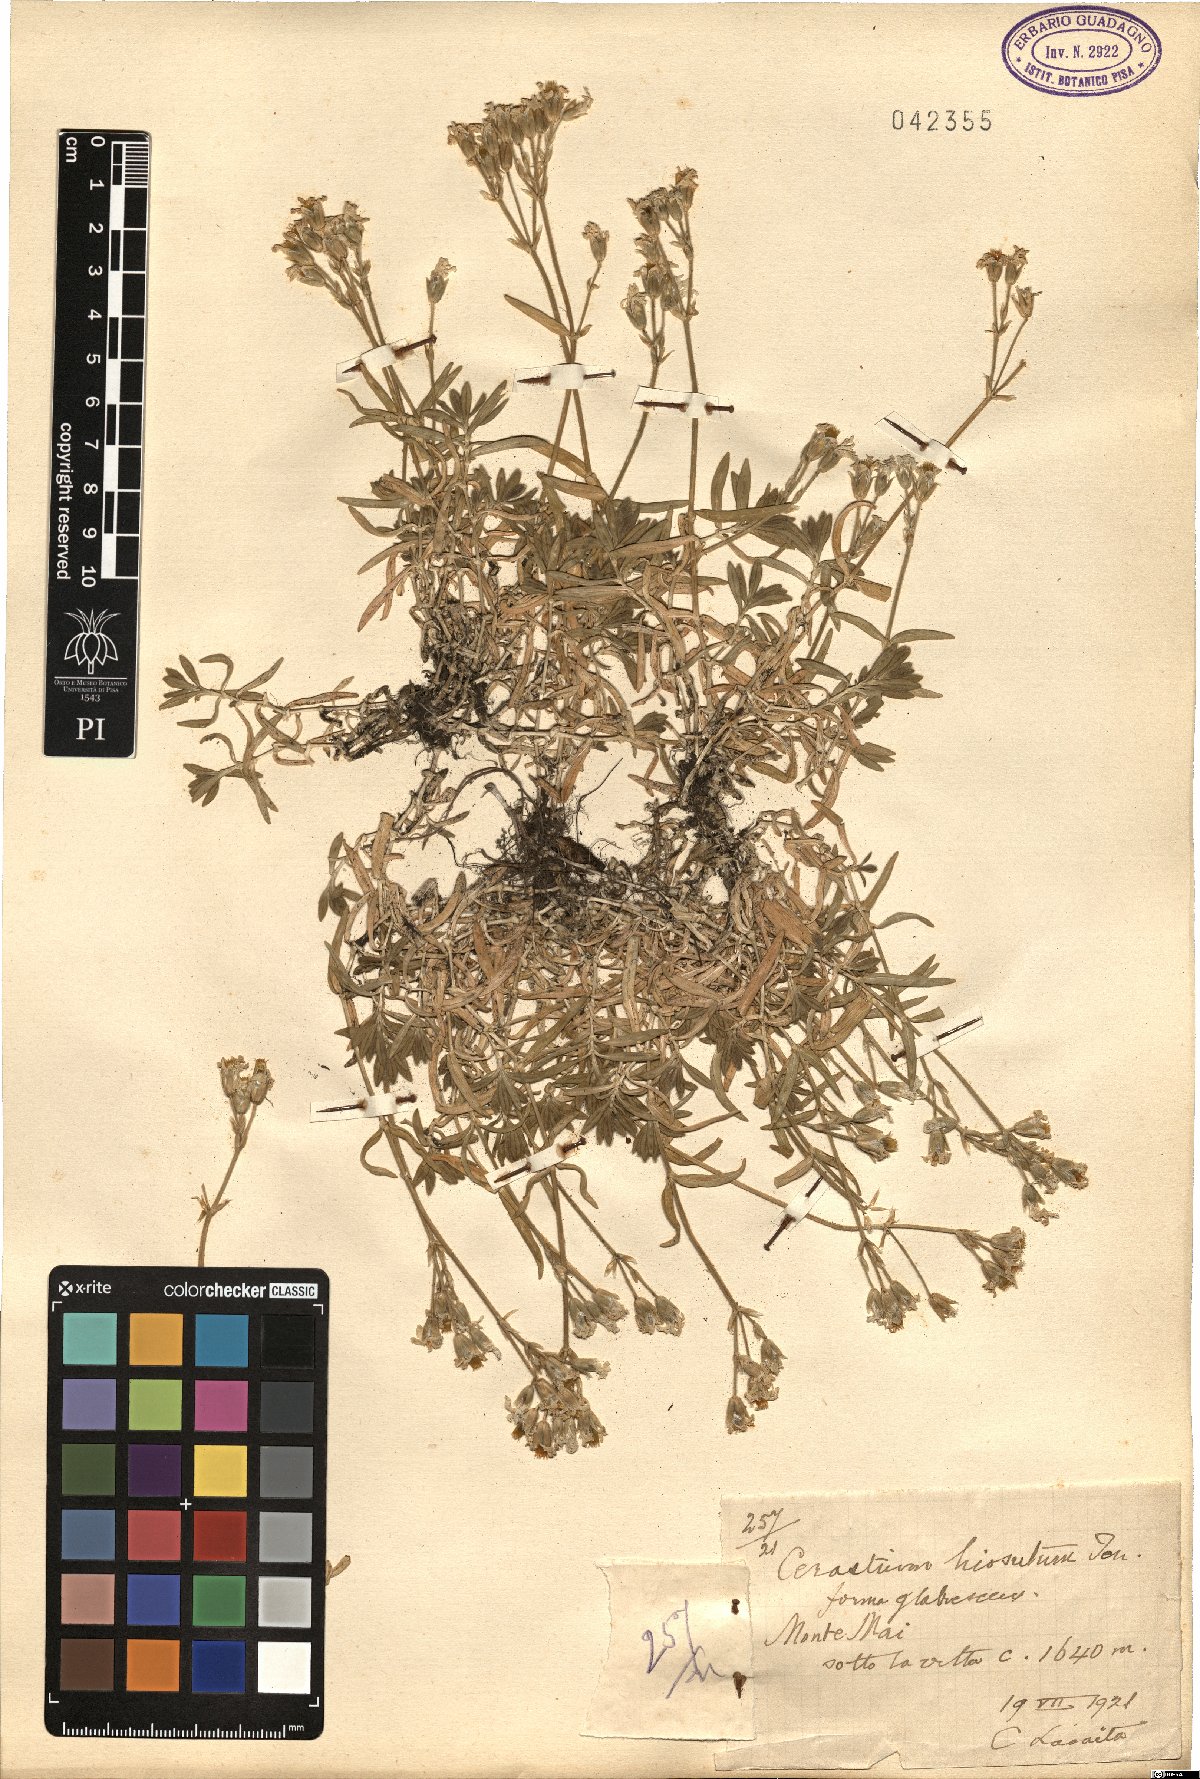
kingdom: Plantae
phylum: Tracheophyta
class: Magnoliopsida
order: Caryophyllales
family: Caryophyllaceae
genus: Cerastium
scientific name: Cerastium scaranii
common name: Italian mouse-ear
